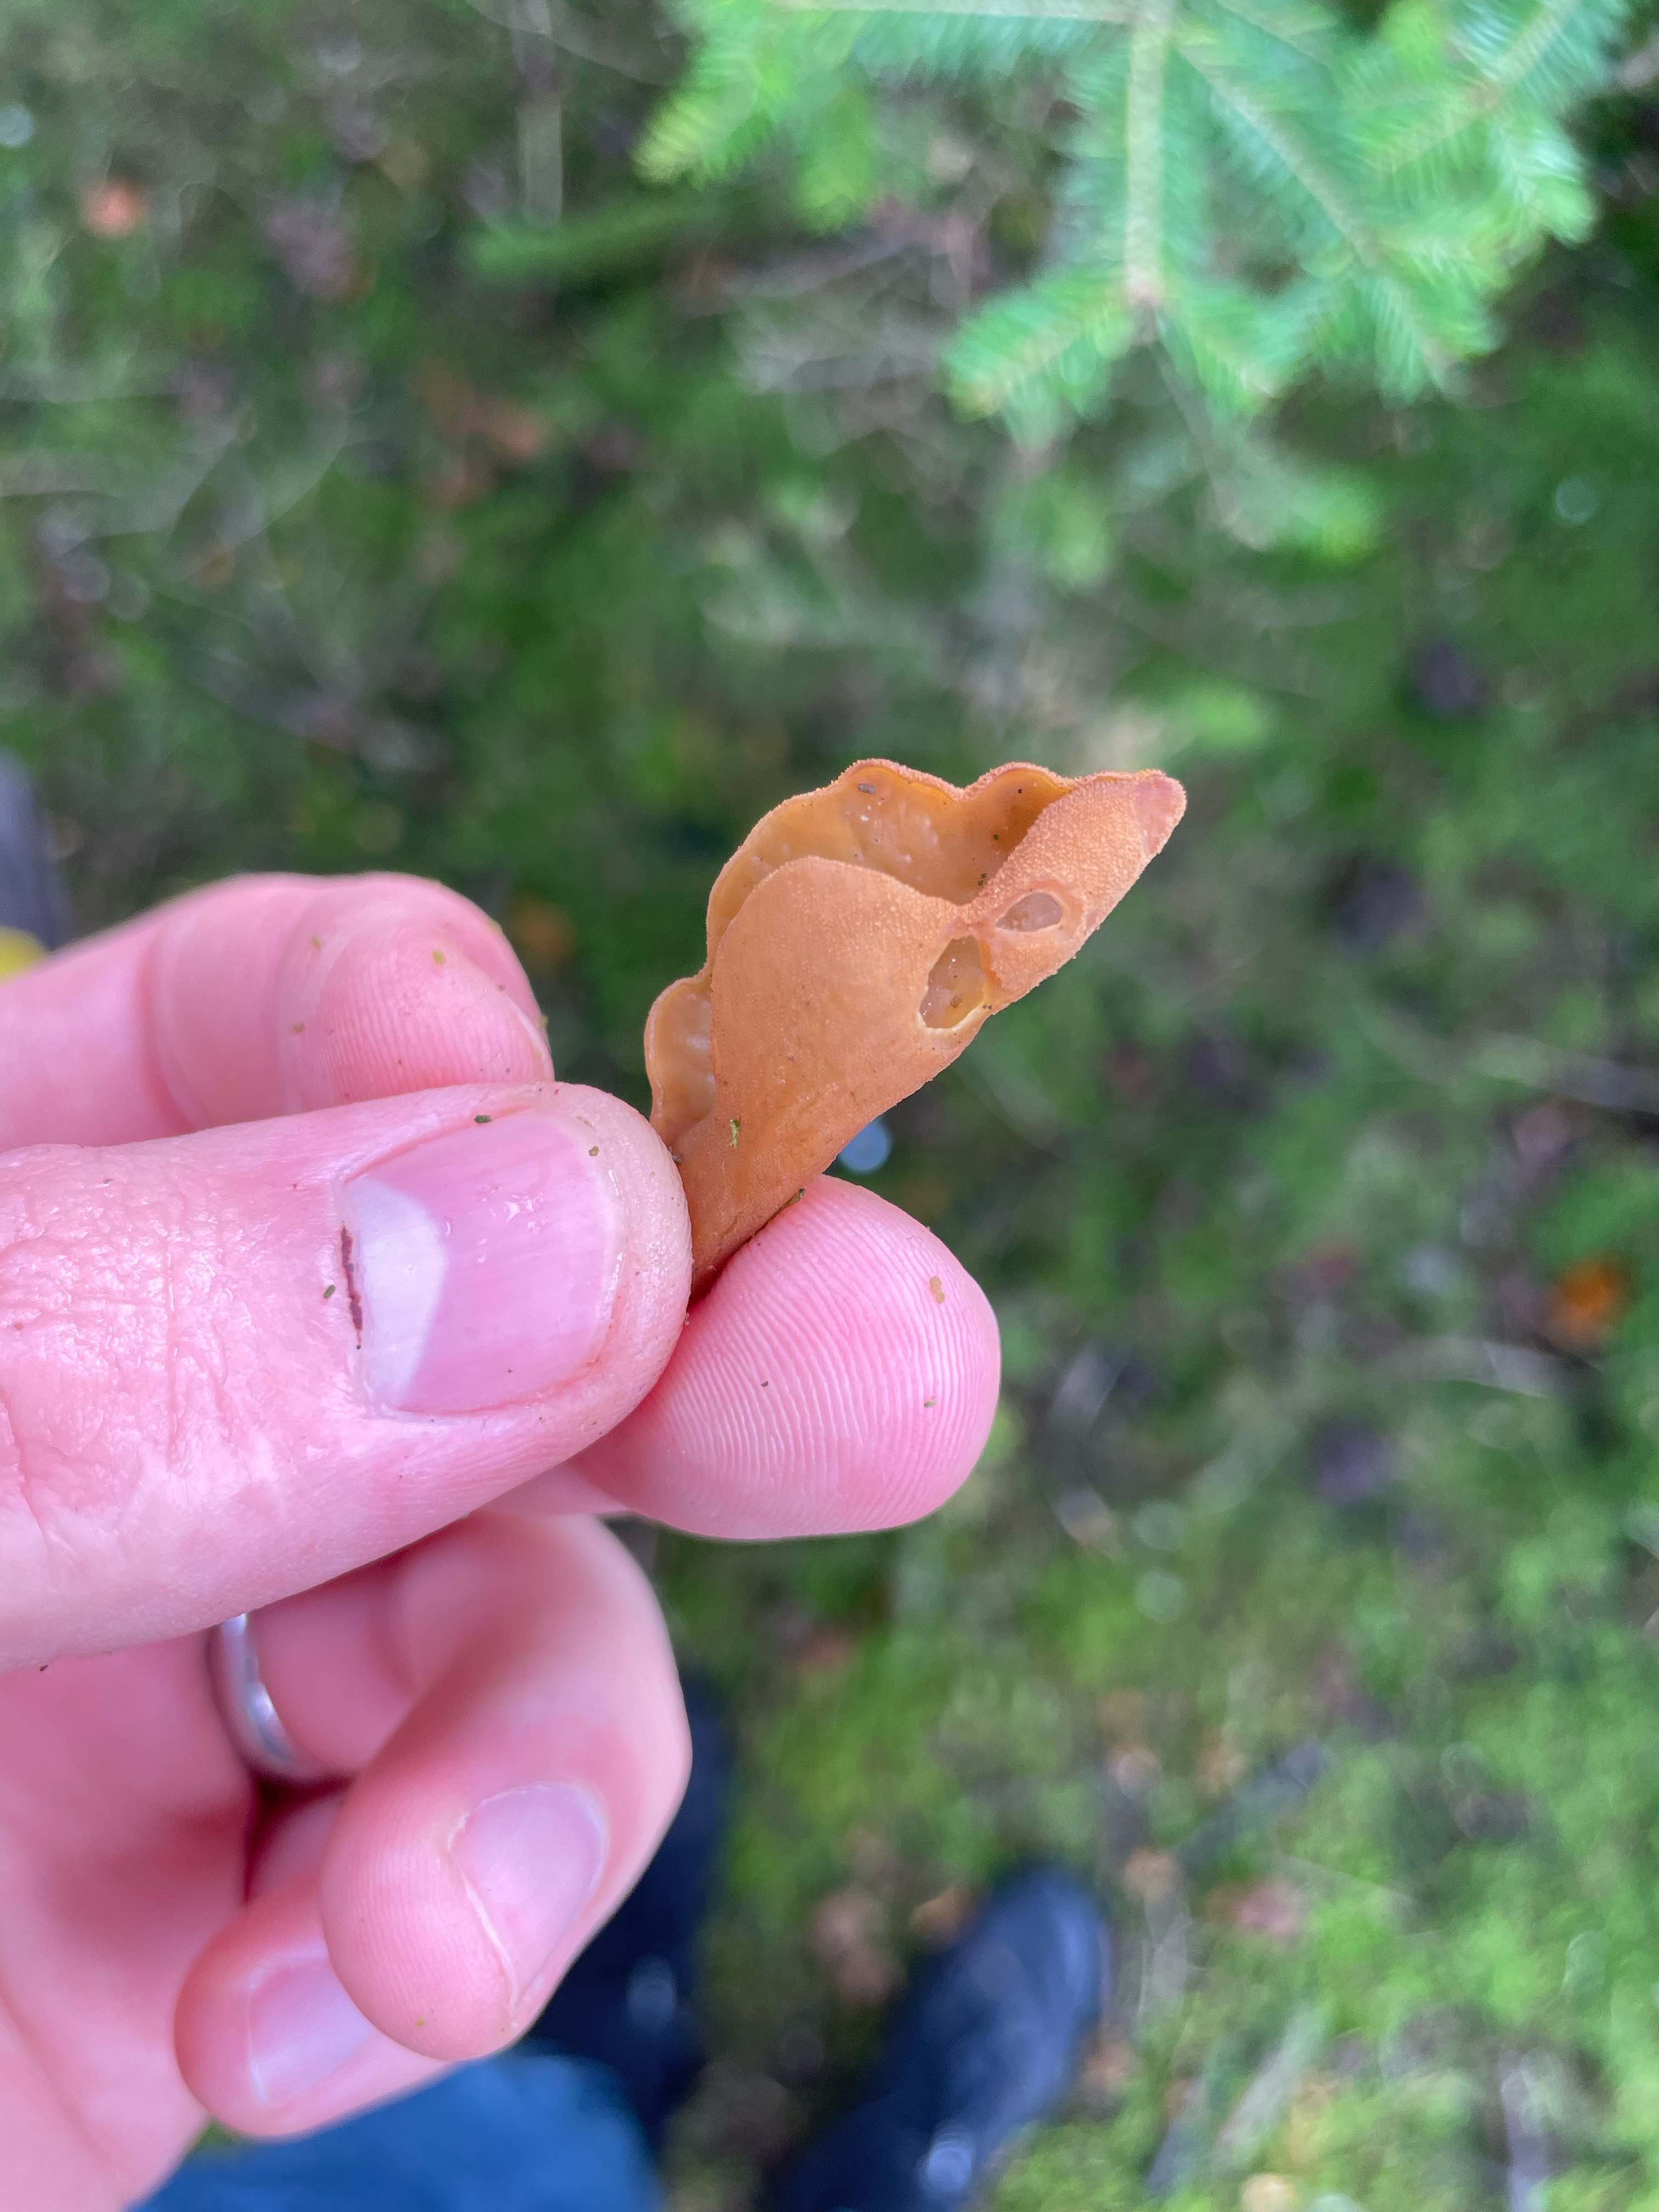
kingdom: Fungi
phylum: Ascomycota
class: Pezizomycetes
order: Pezizales
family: Otideaceae
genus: Otidea
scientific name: Otidea
